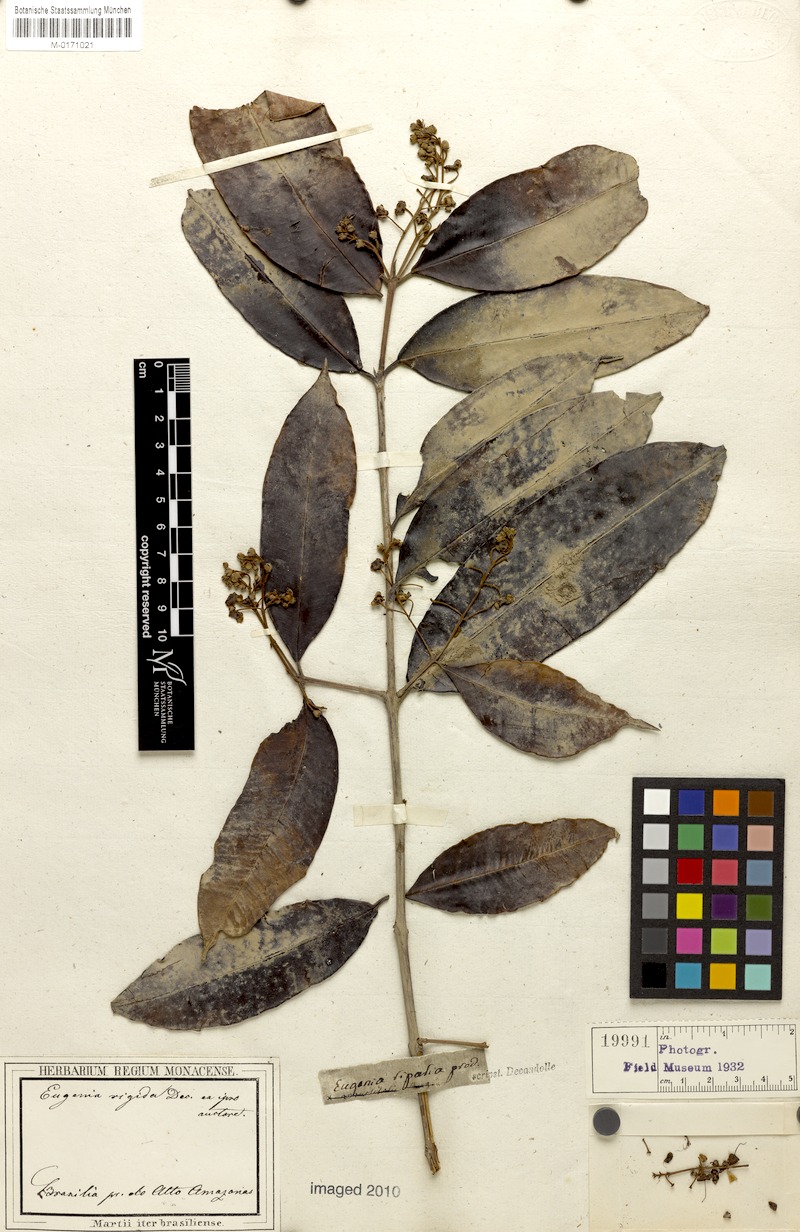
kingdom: Plantae
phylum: Tracheophyta
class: Magnoliopsida
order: Myrtales
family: Myrtaceae
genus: Eugenia
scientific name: Eugenia patens
